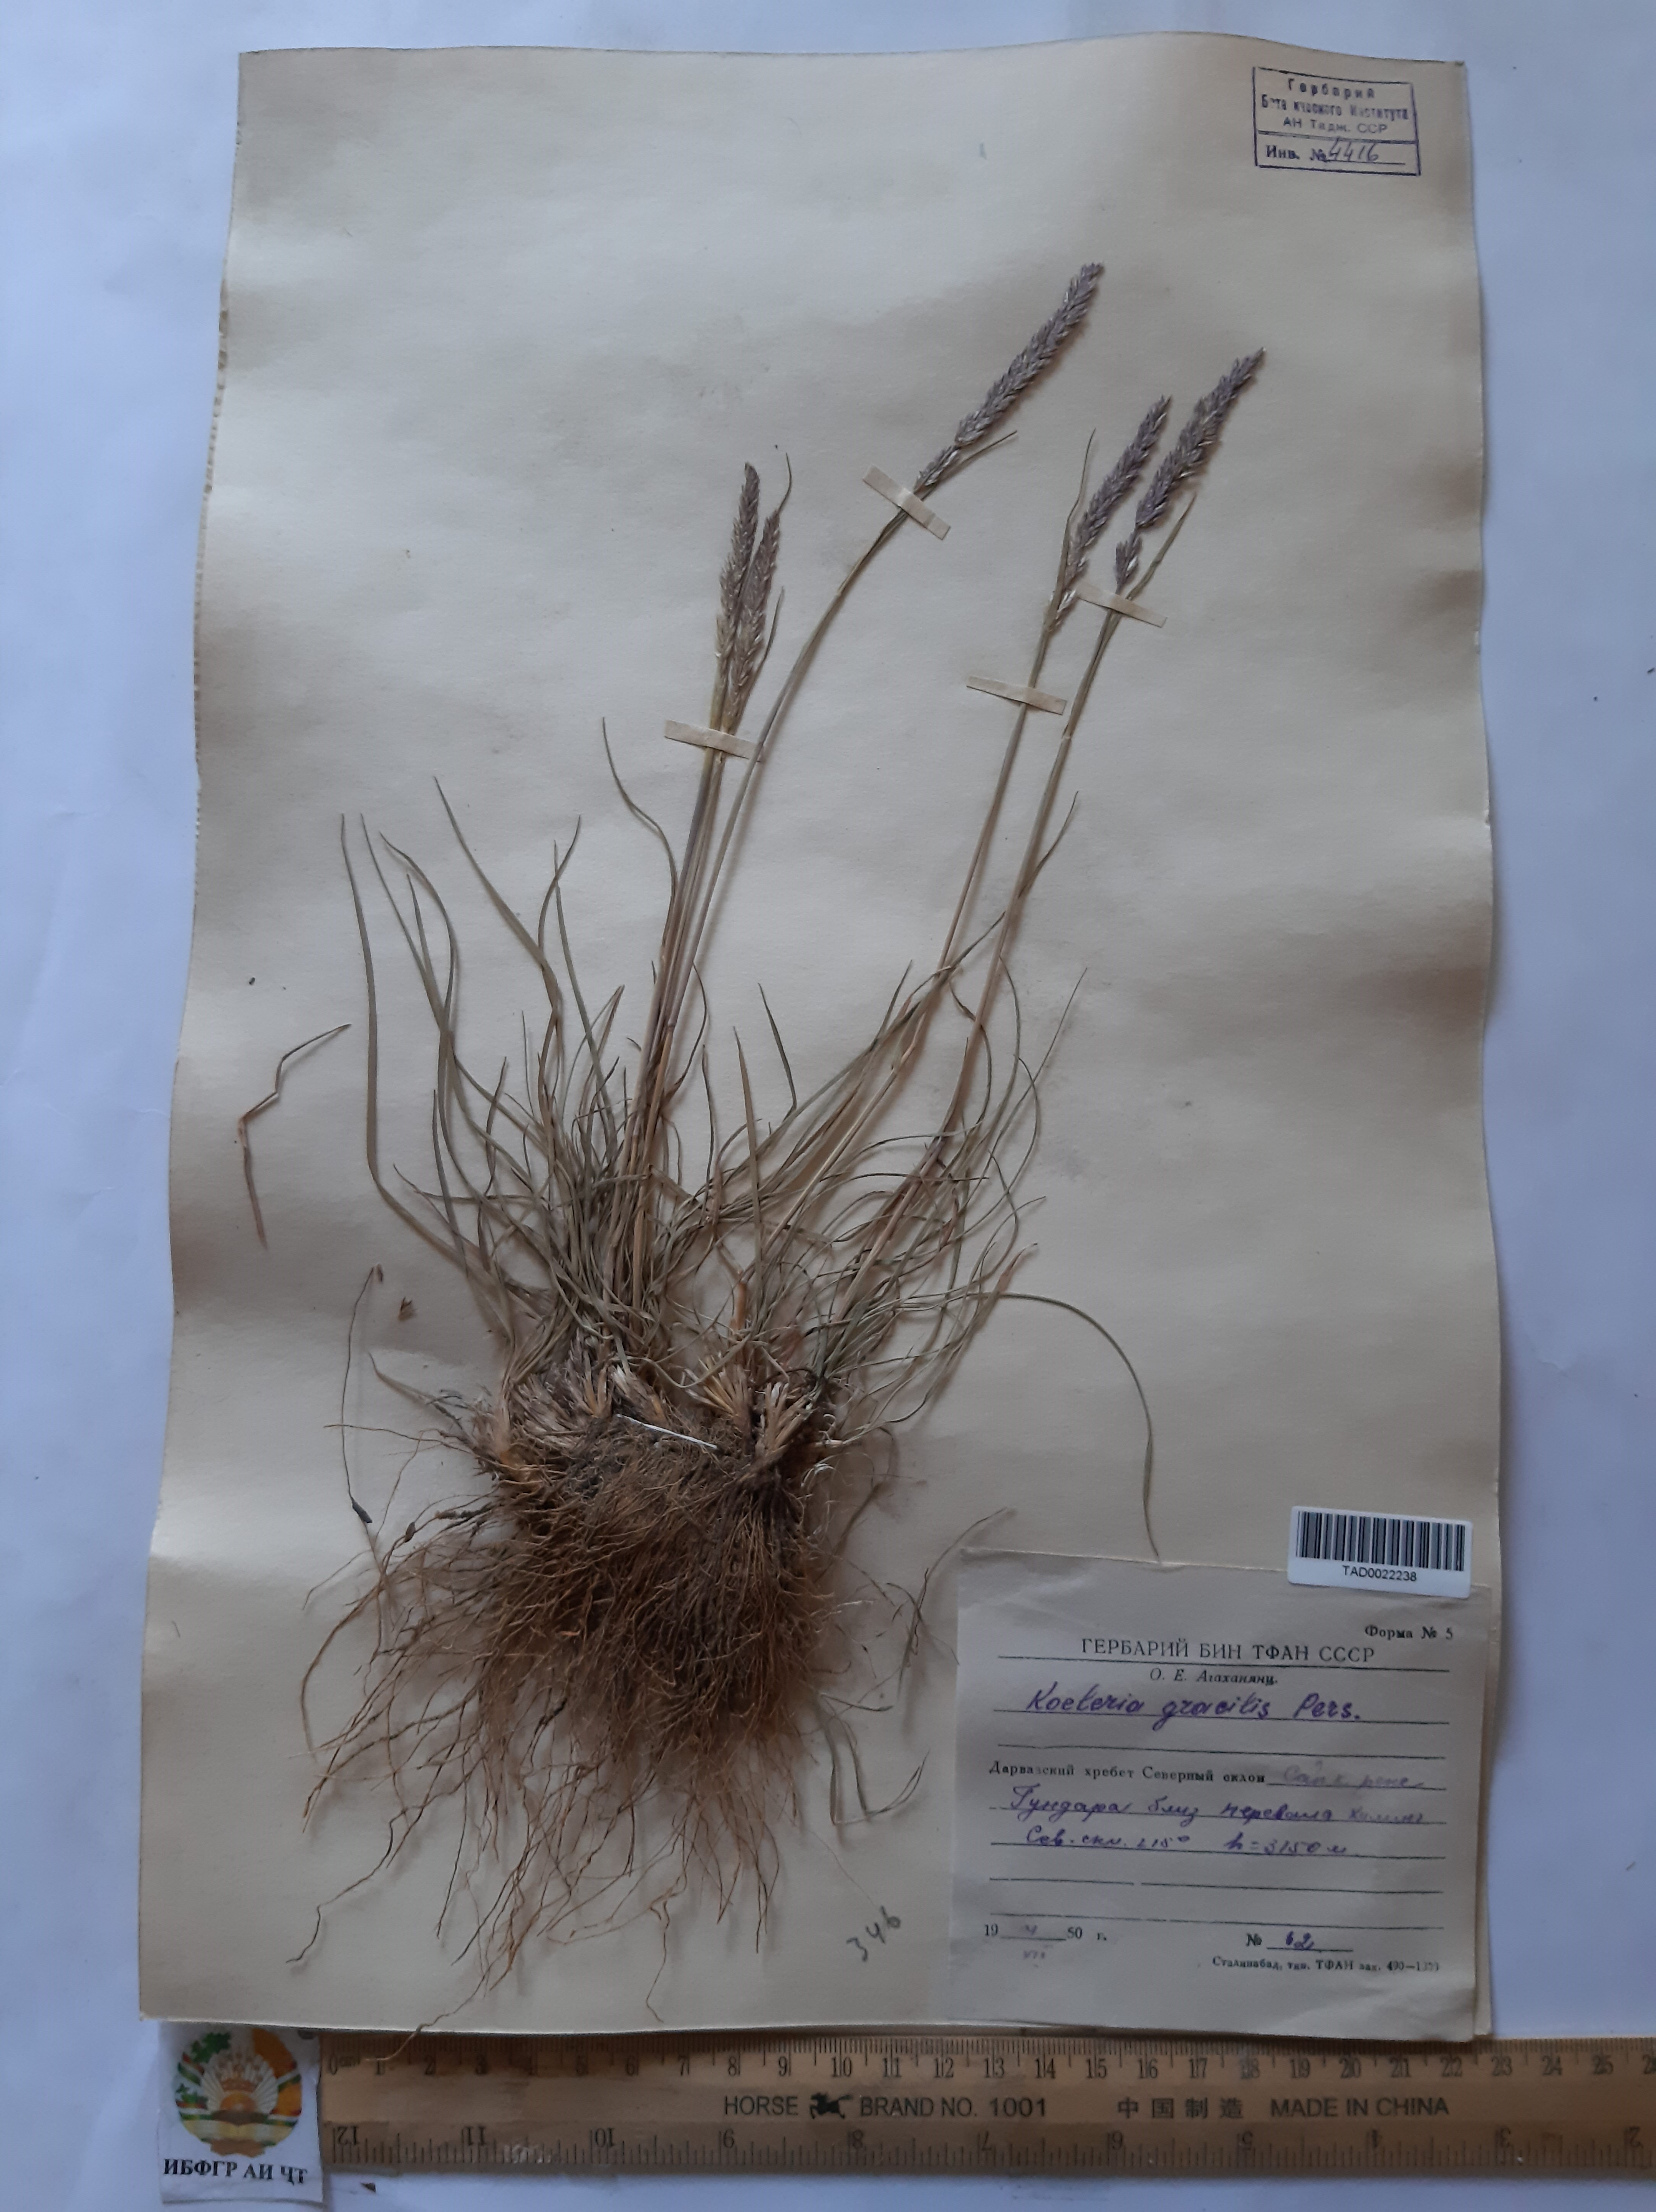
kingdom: Plantae
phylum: Tracheophyta
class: Liliopsida
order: Poales
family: Poaceae
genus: Koeleria
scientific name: Koeleria macrantha
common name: Crested hair-grass
